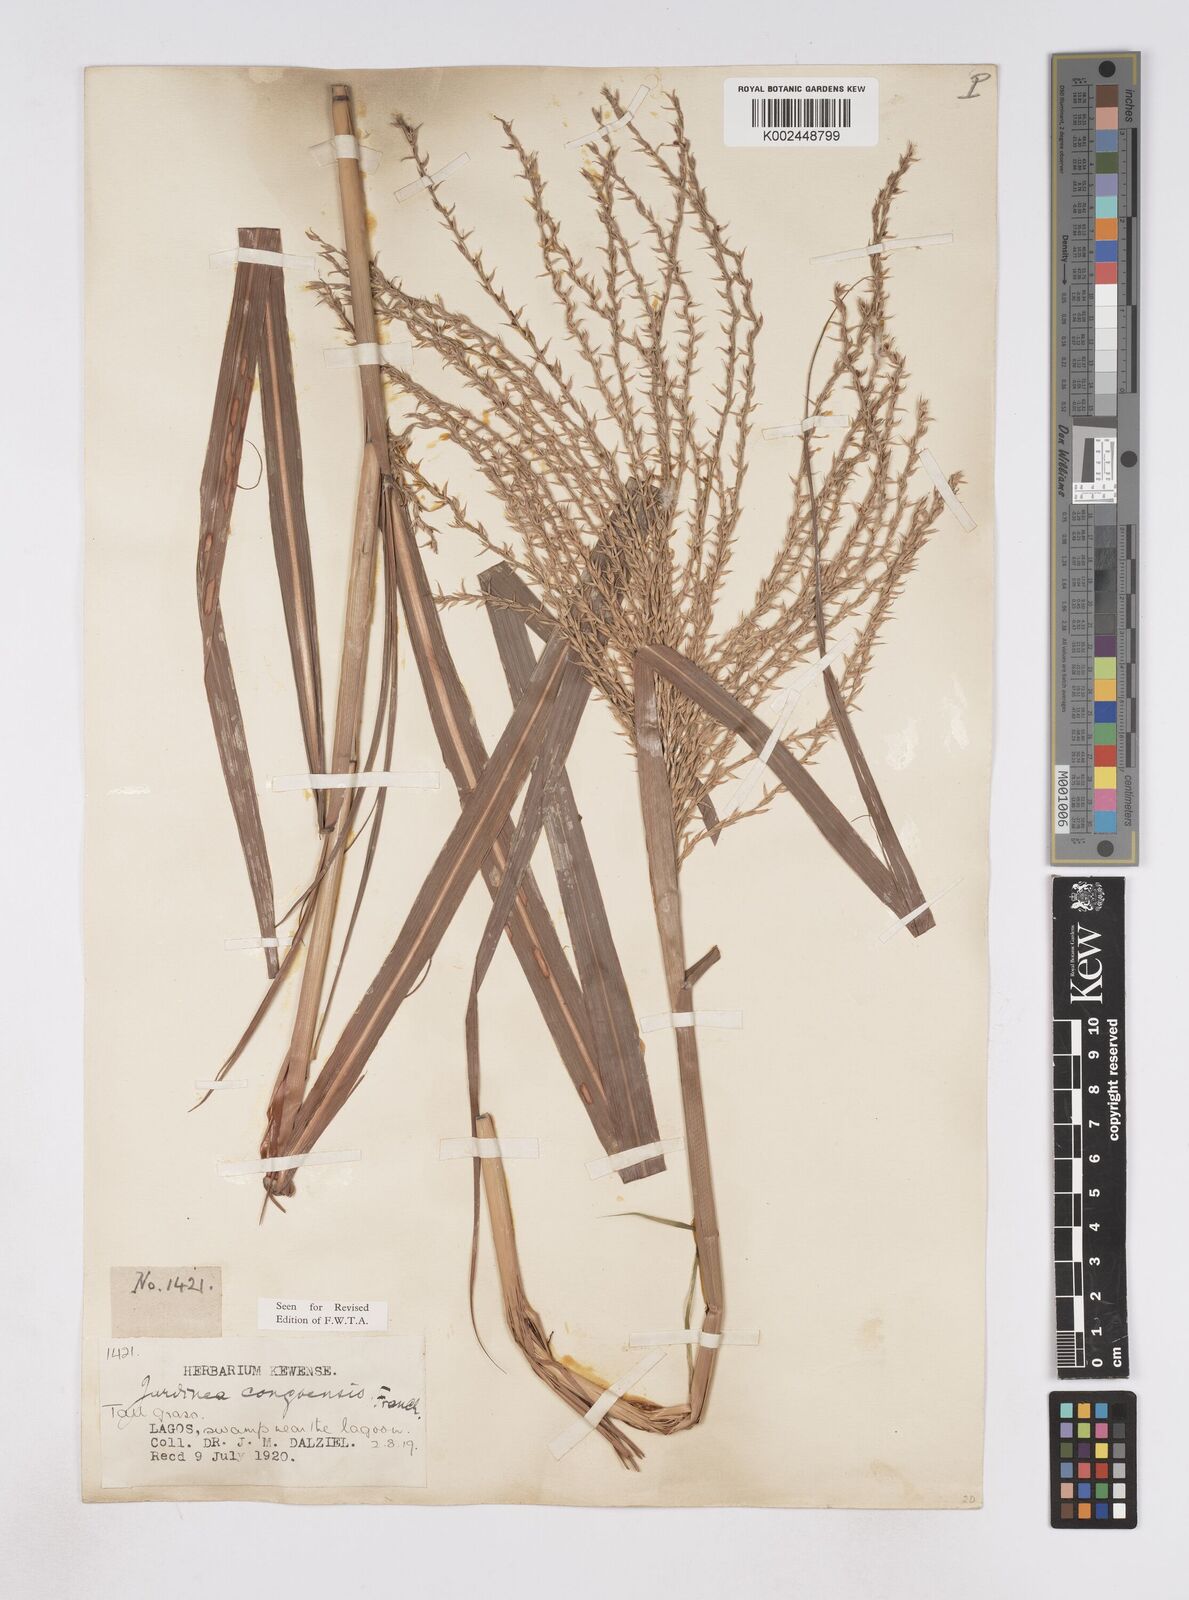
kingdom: Plantae
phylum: Tracheophyta
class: Liliopsida
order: Poales
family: Poaceae
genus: Phacelurus
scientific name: Phacelurus gabonensis
